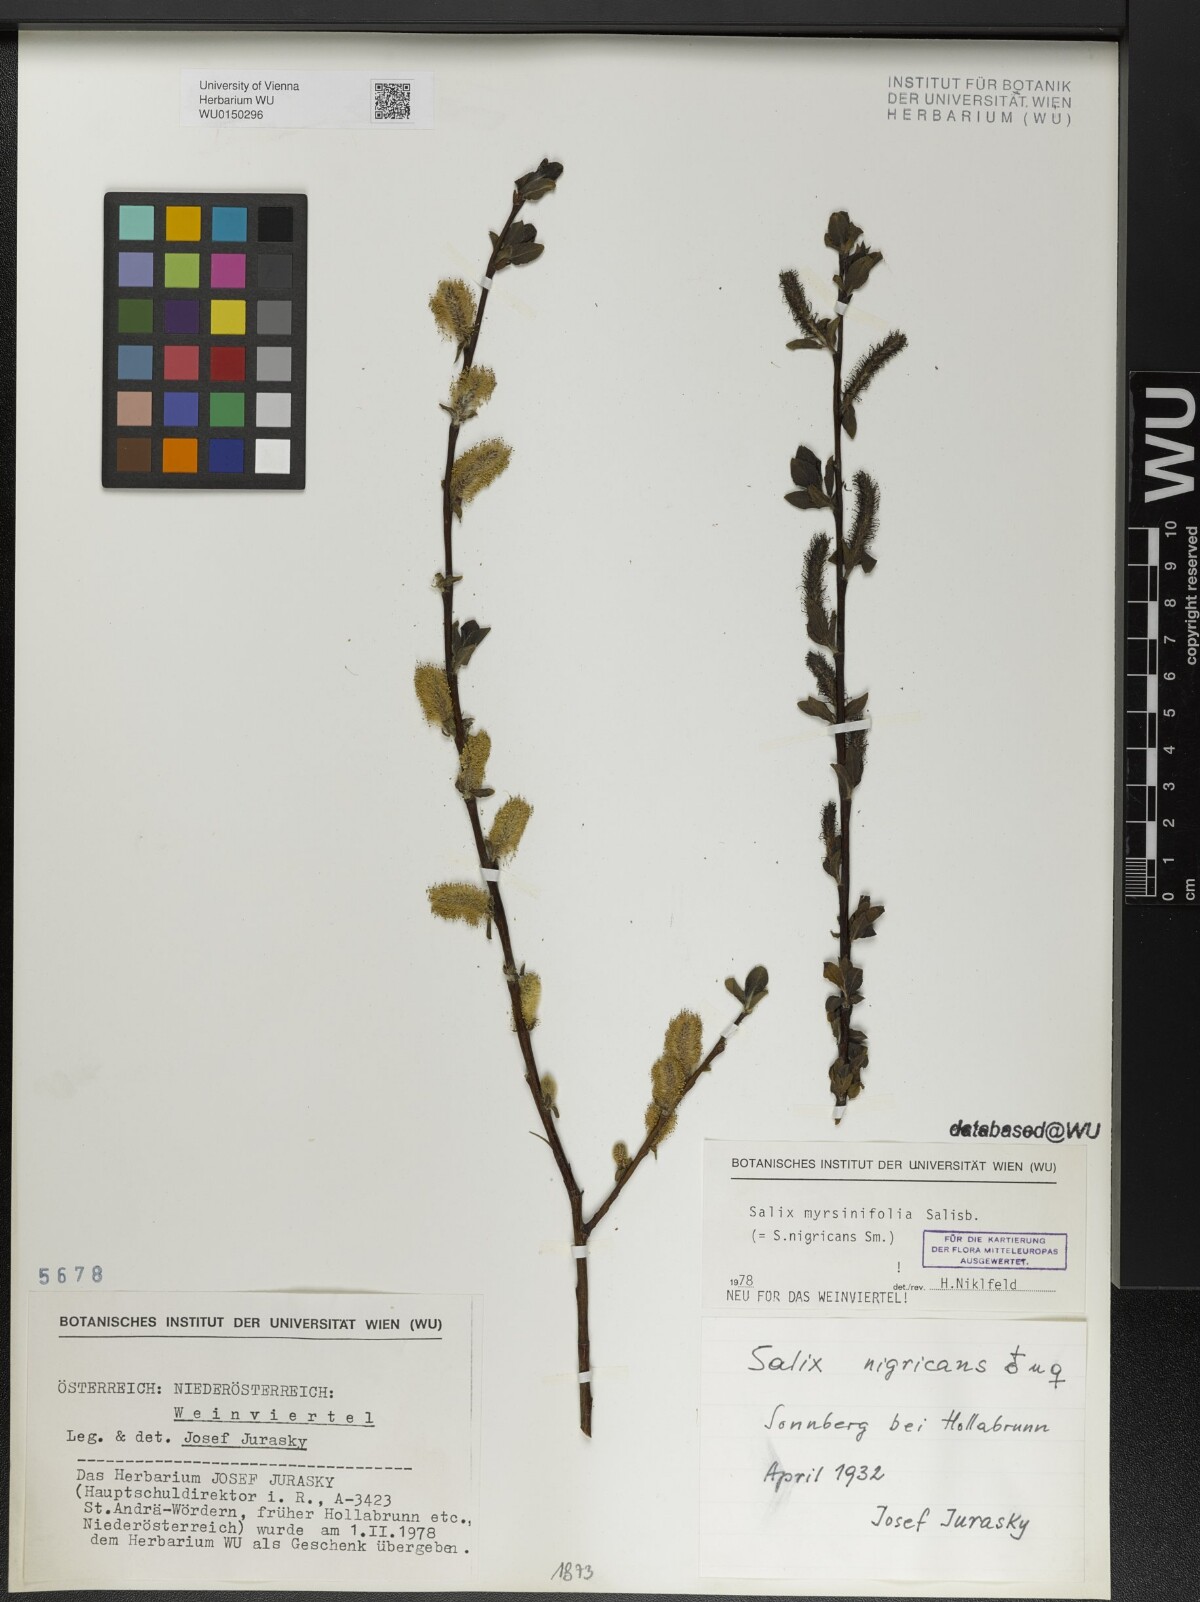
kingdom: Plantae
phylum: Tracheophyta
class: Magnoliopsida
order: Malpighiales
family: Salicaceae
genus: Salix
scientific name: Salix myrsinifolia
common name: Dark-leaved willow
